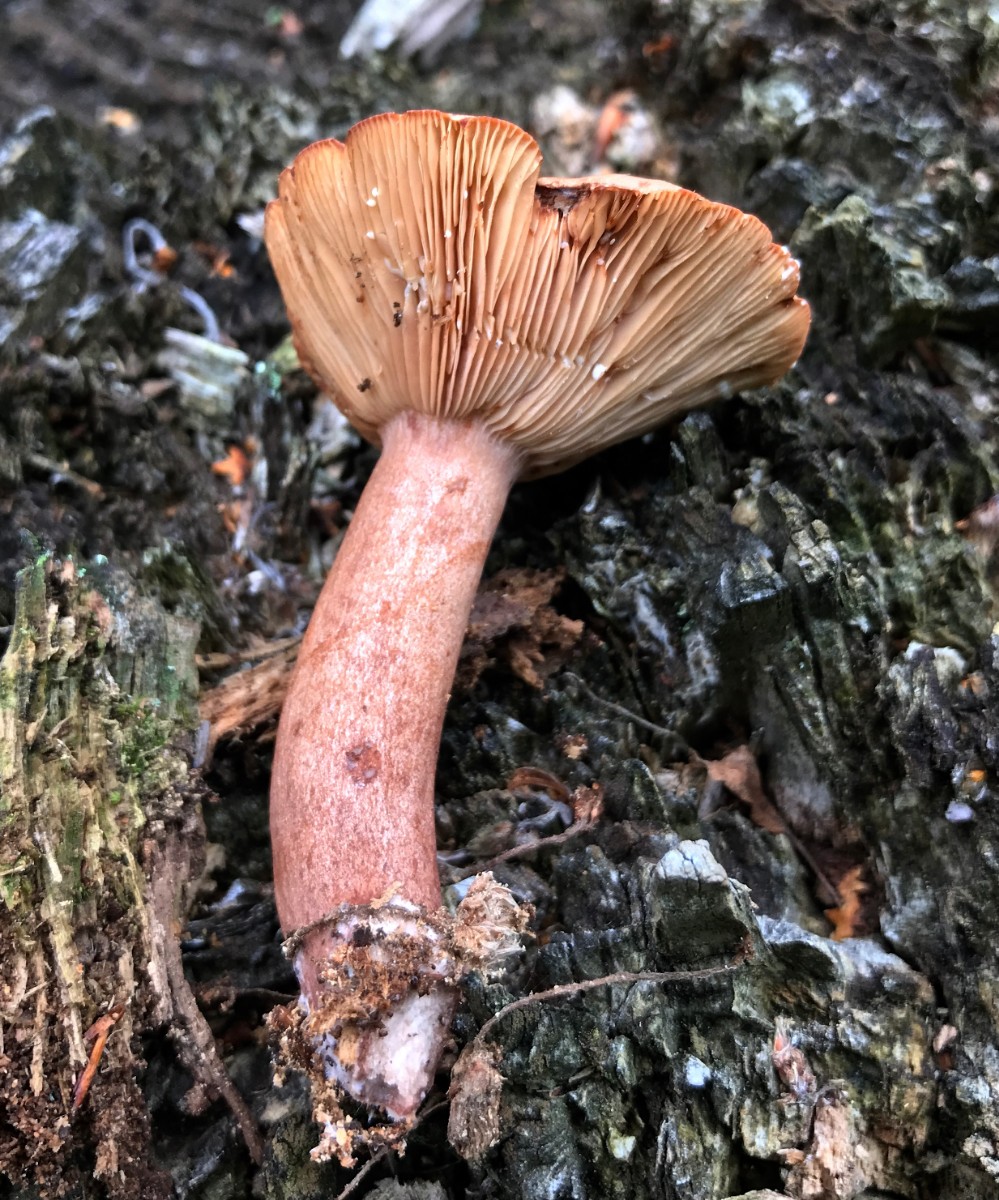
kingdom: Fungi
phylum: Basidiomycota
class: Agaricomycetes
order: Russulales
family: Russulaceae
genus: Lactarius
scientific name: Lactarius subdulcis
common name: sødlig mælkehat
